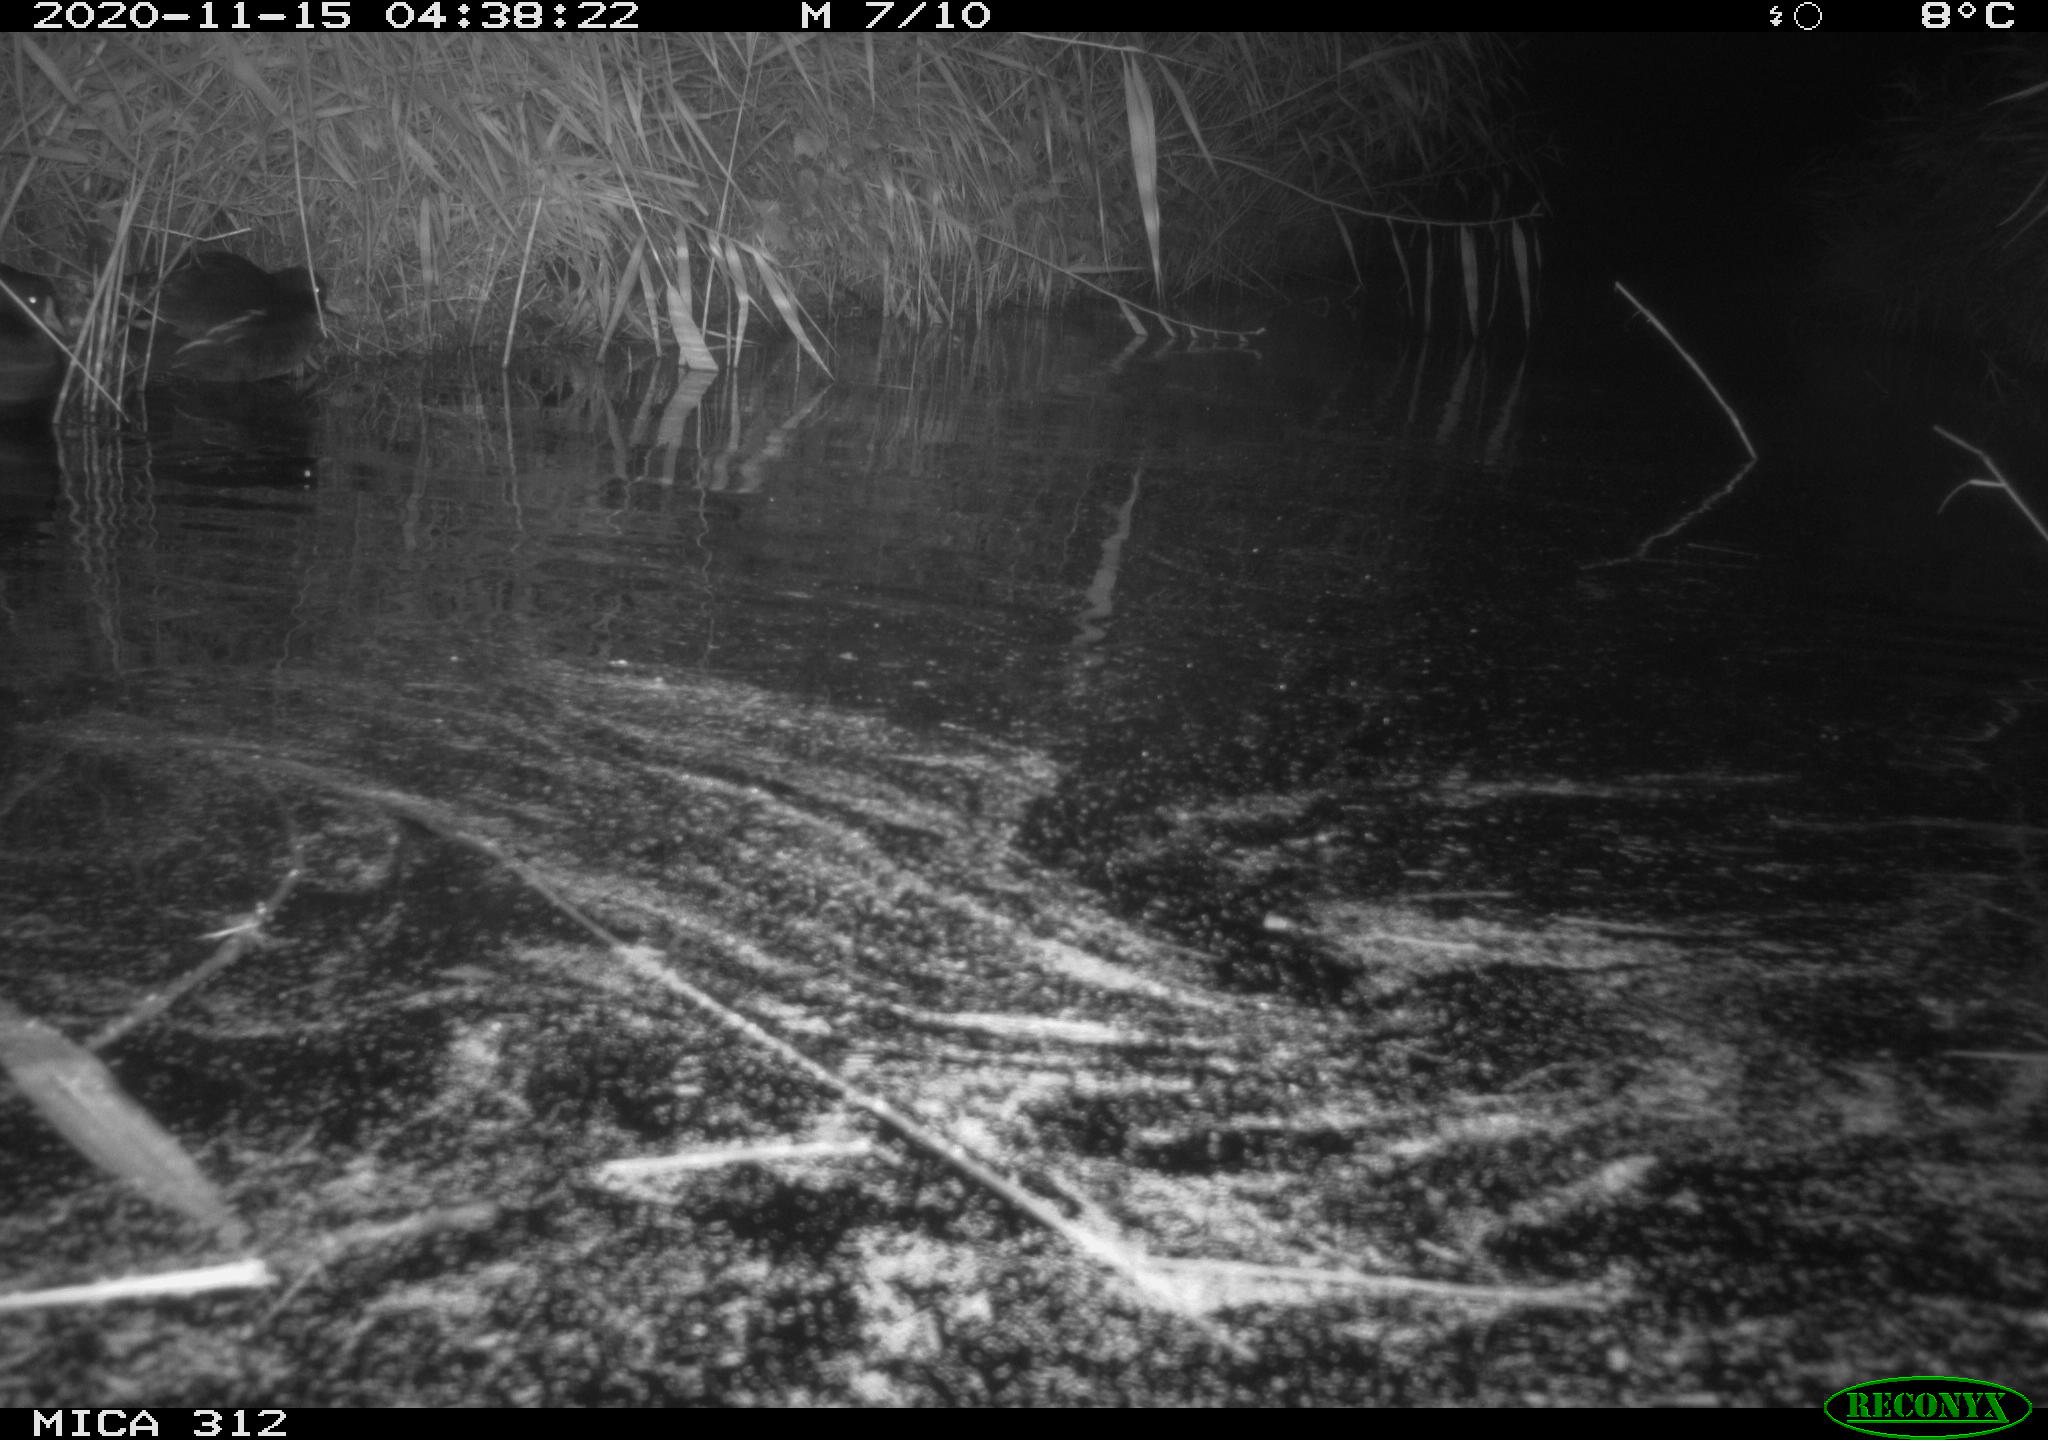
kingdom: Animalia
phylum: Chordata
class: Mammalia
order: Rodentia
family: Muridae
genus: Rattus
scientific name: Rattus norvegicus
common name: Brown rat
